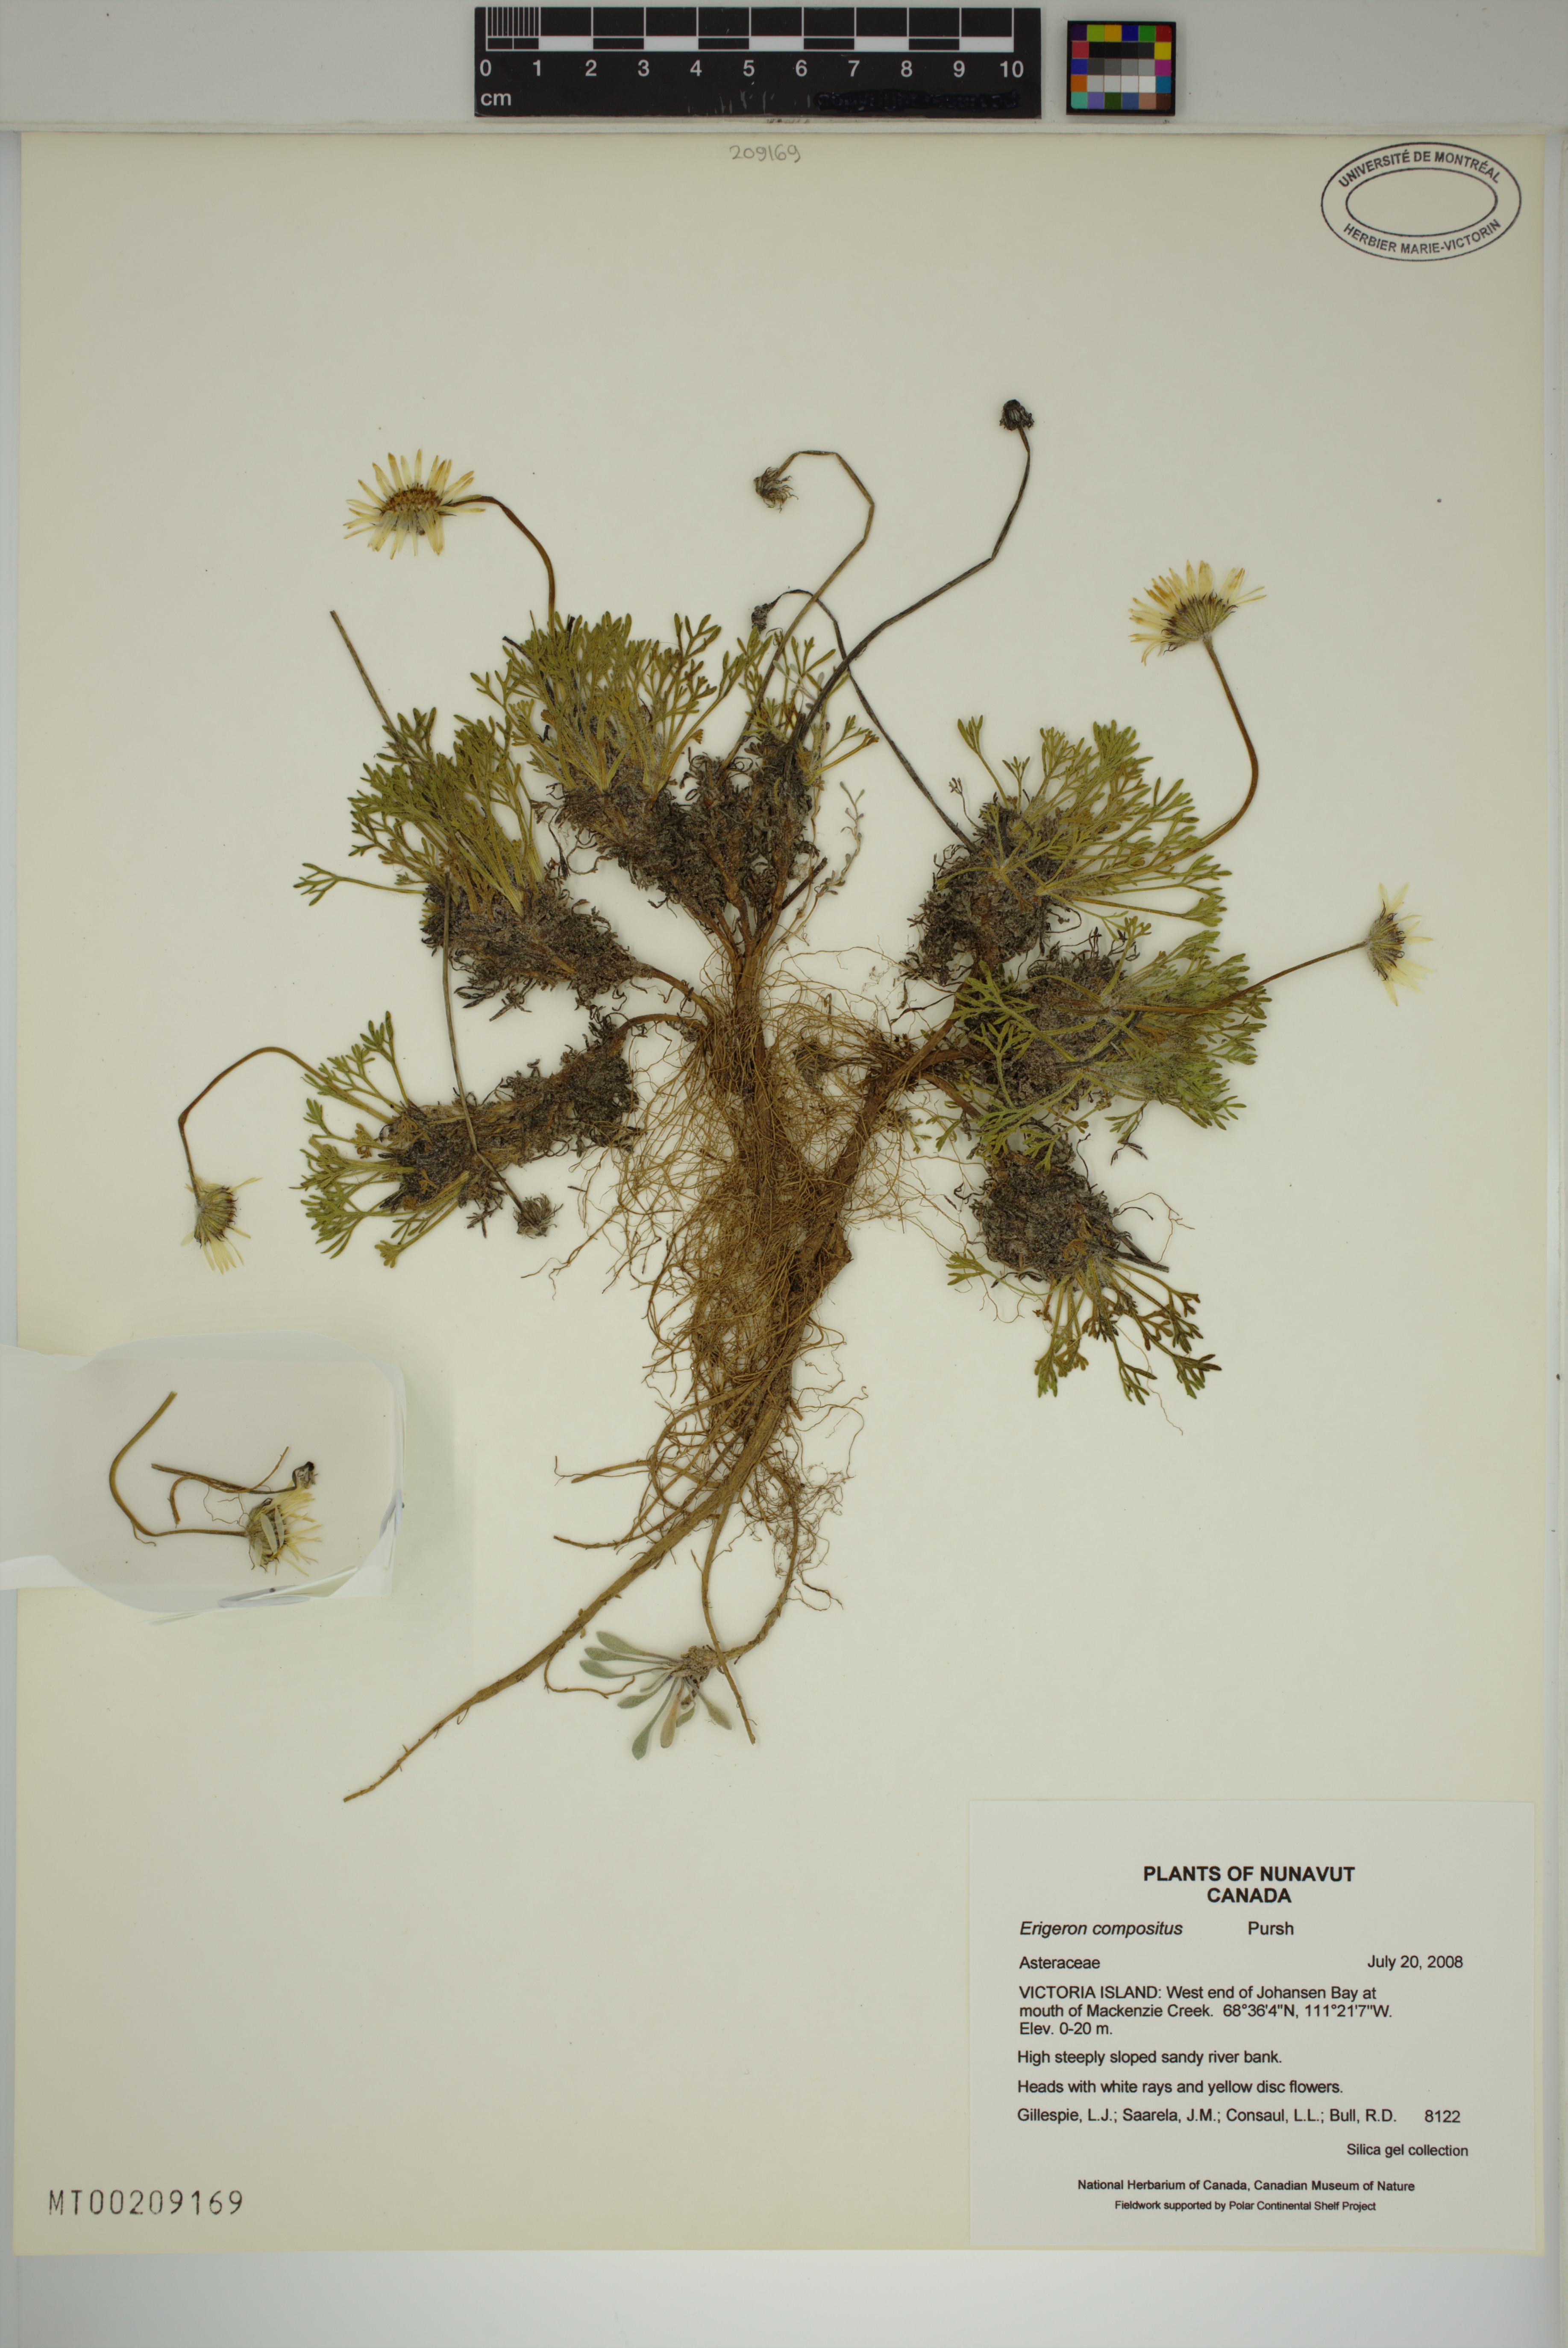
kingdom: Plantae
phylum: Tracheophyta
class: Magnoliopsida
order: Asterales
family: Asteraceae
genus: Erigeron
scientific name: Erigeron compositus
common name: Dwarf mountain fleabane
